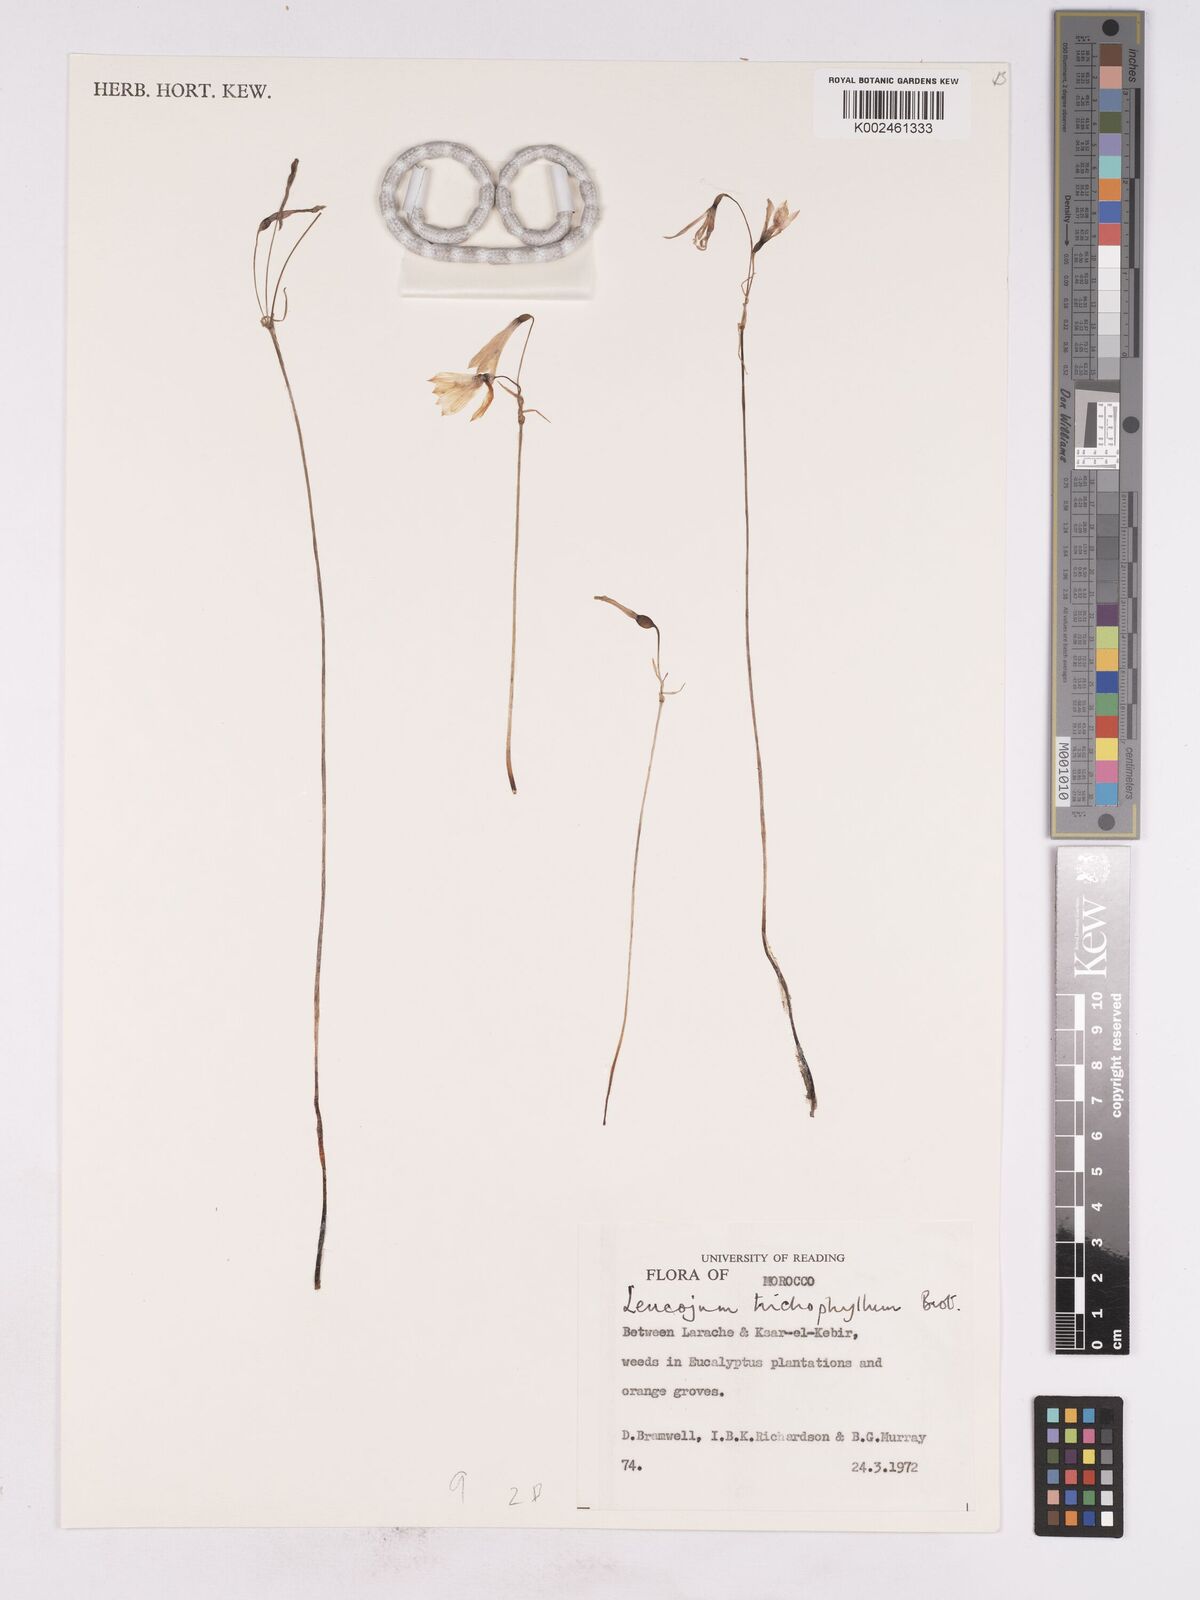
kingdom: Plantae
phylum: Tracheophyta
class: Liliopsida
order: Asparagales
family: Amaryllidaceae
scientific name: Amaryllidaceae
